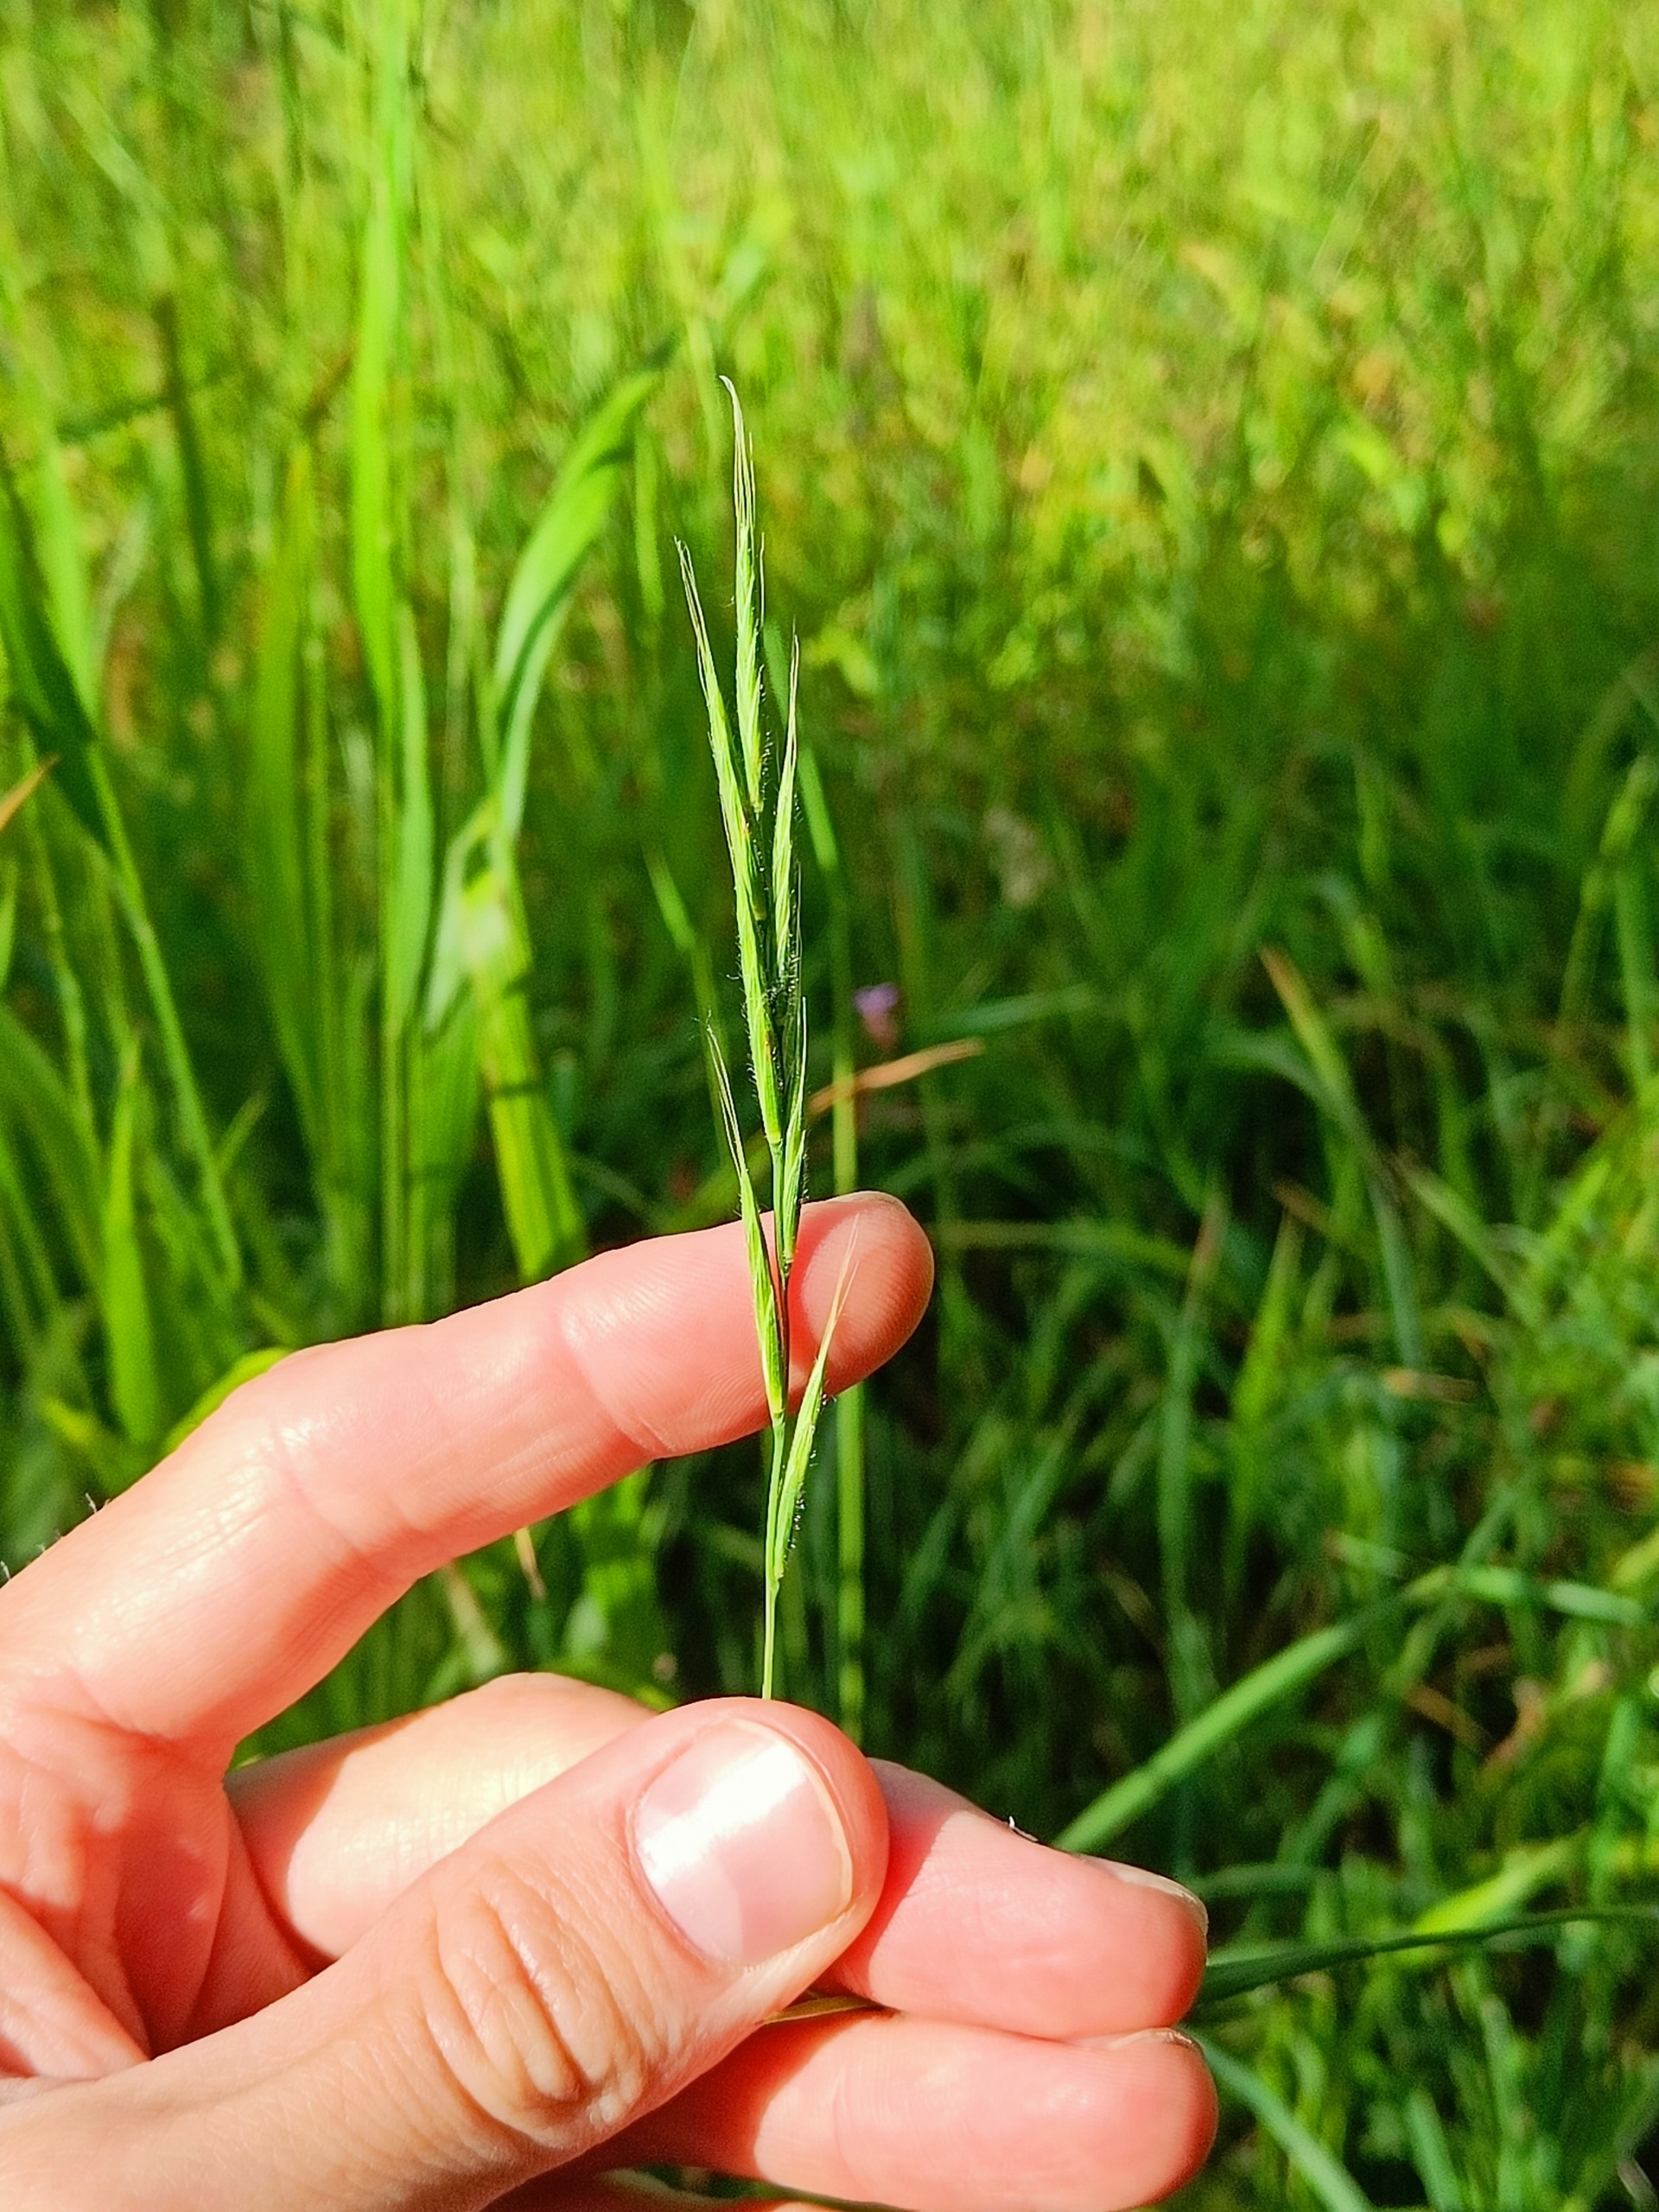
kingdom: Plantae
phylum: Tracheophyta
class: Liliopsida
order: Poales
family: Poaceae
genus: Brachypodium
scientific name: Brachypodium sylvaticum
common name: Skov-stilkaks
